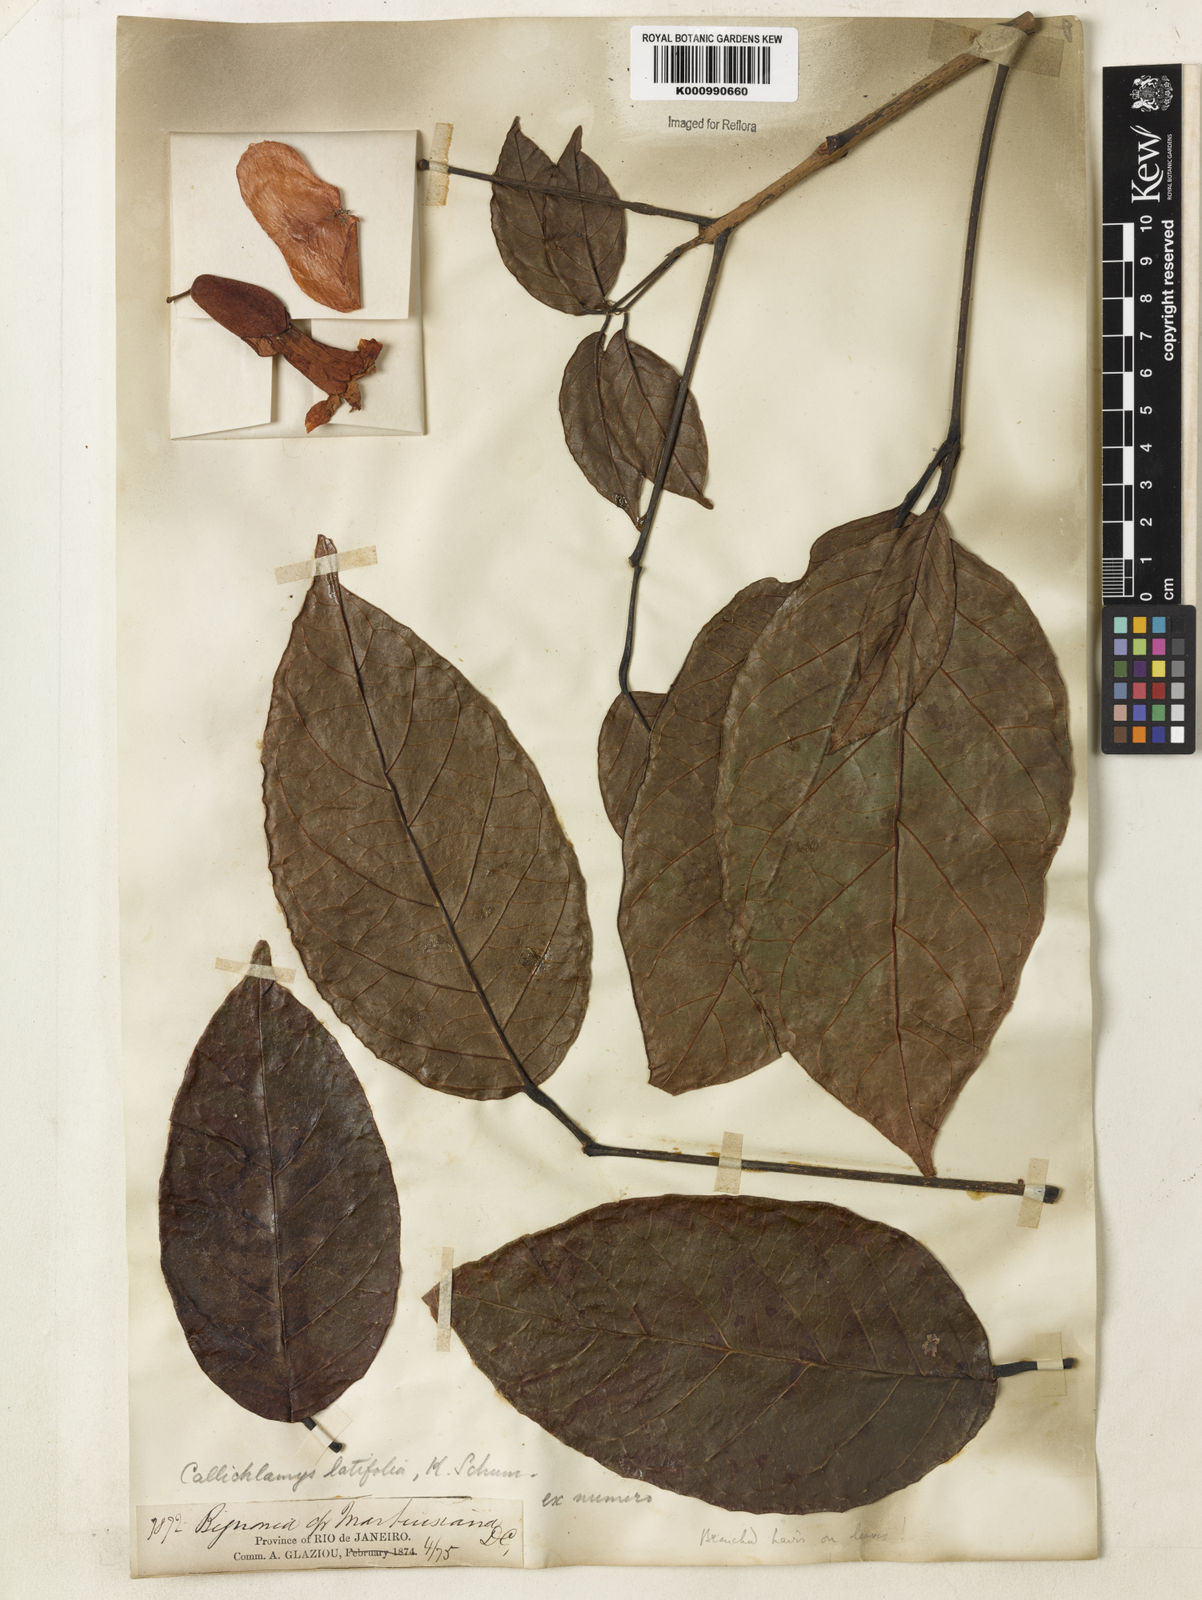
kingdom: Plantae
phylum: Tracheophyta
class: Magnoliopsida
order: Lamiales
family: Bignoniaceae
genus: Callichlamys
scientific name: Callichlamys latifolia
